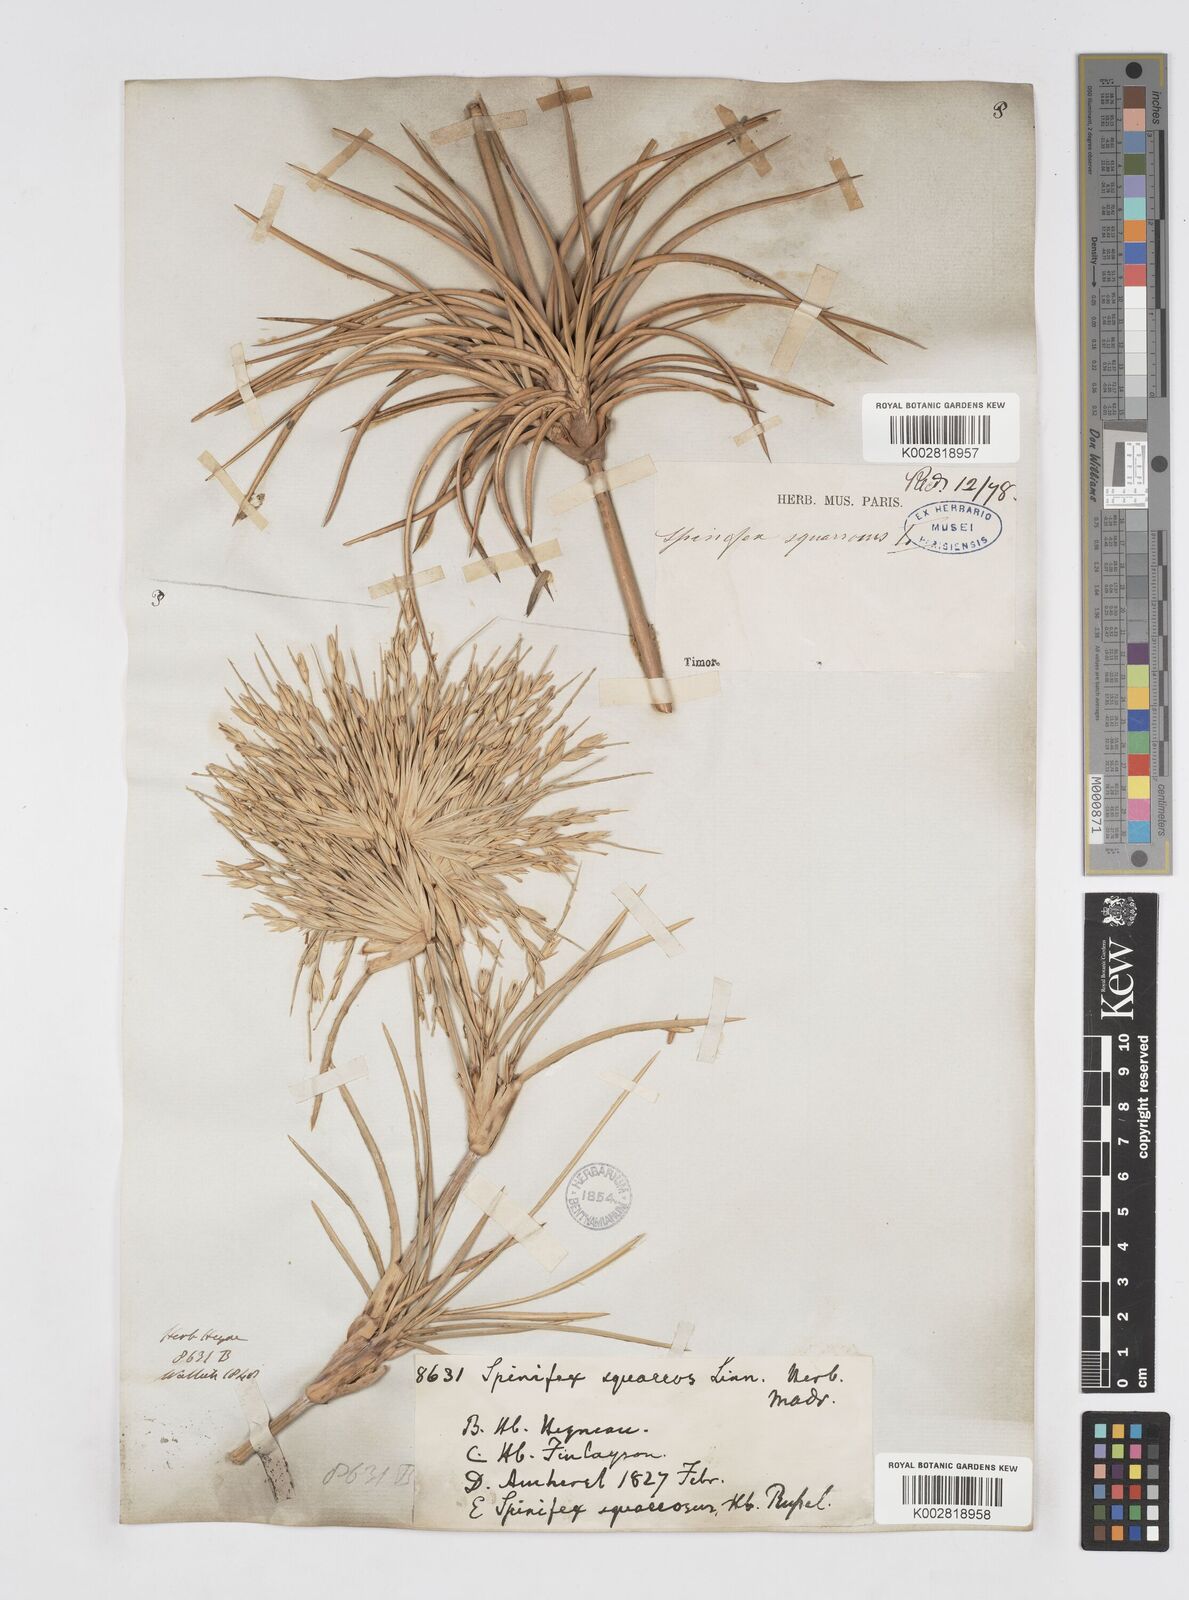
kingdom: Plantae
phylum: Tracheophyta
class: Liliopsida
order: Poales
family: Poaceae
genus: Spinifex
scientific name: Spinifex littoreus
